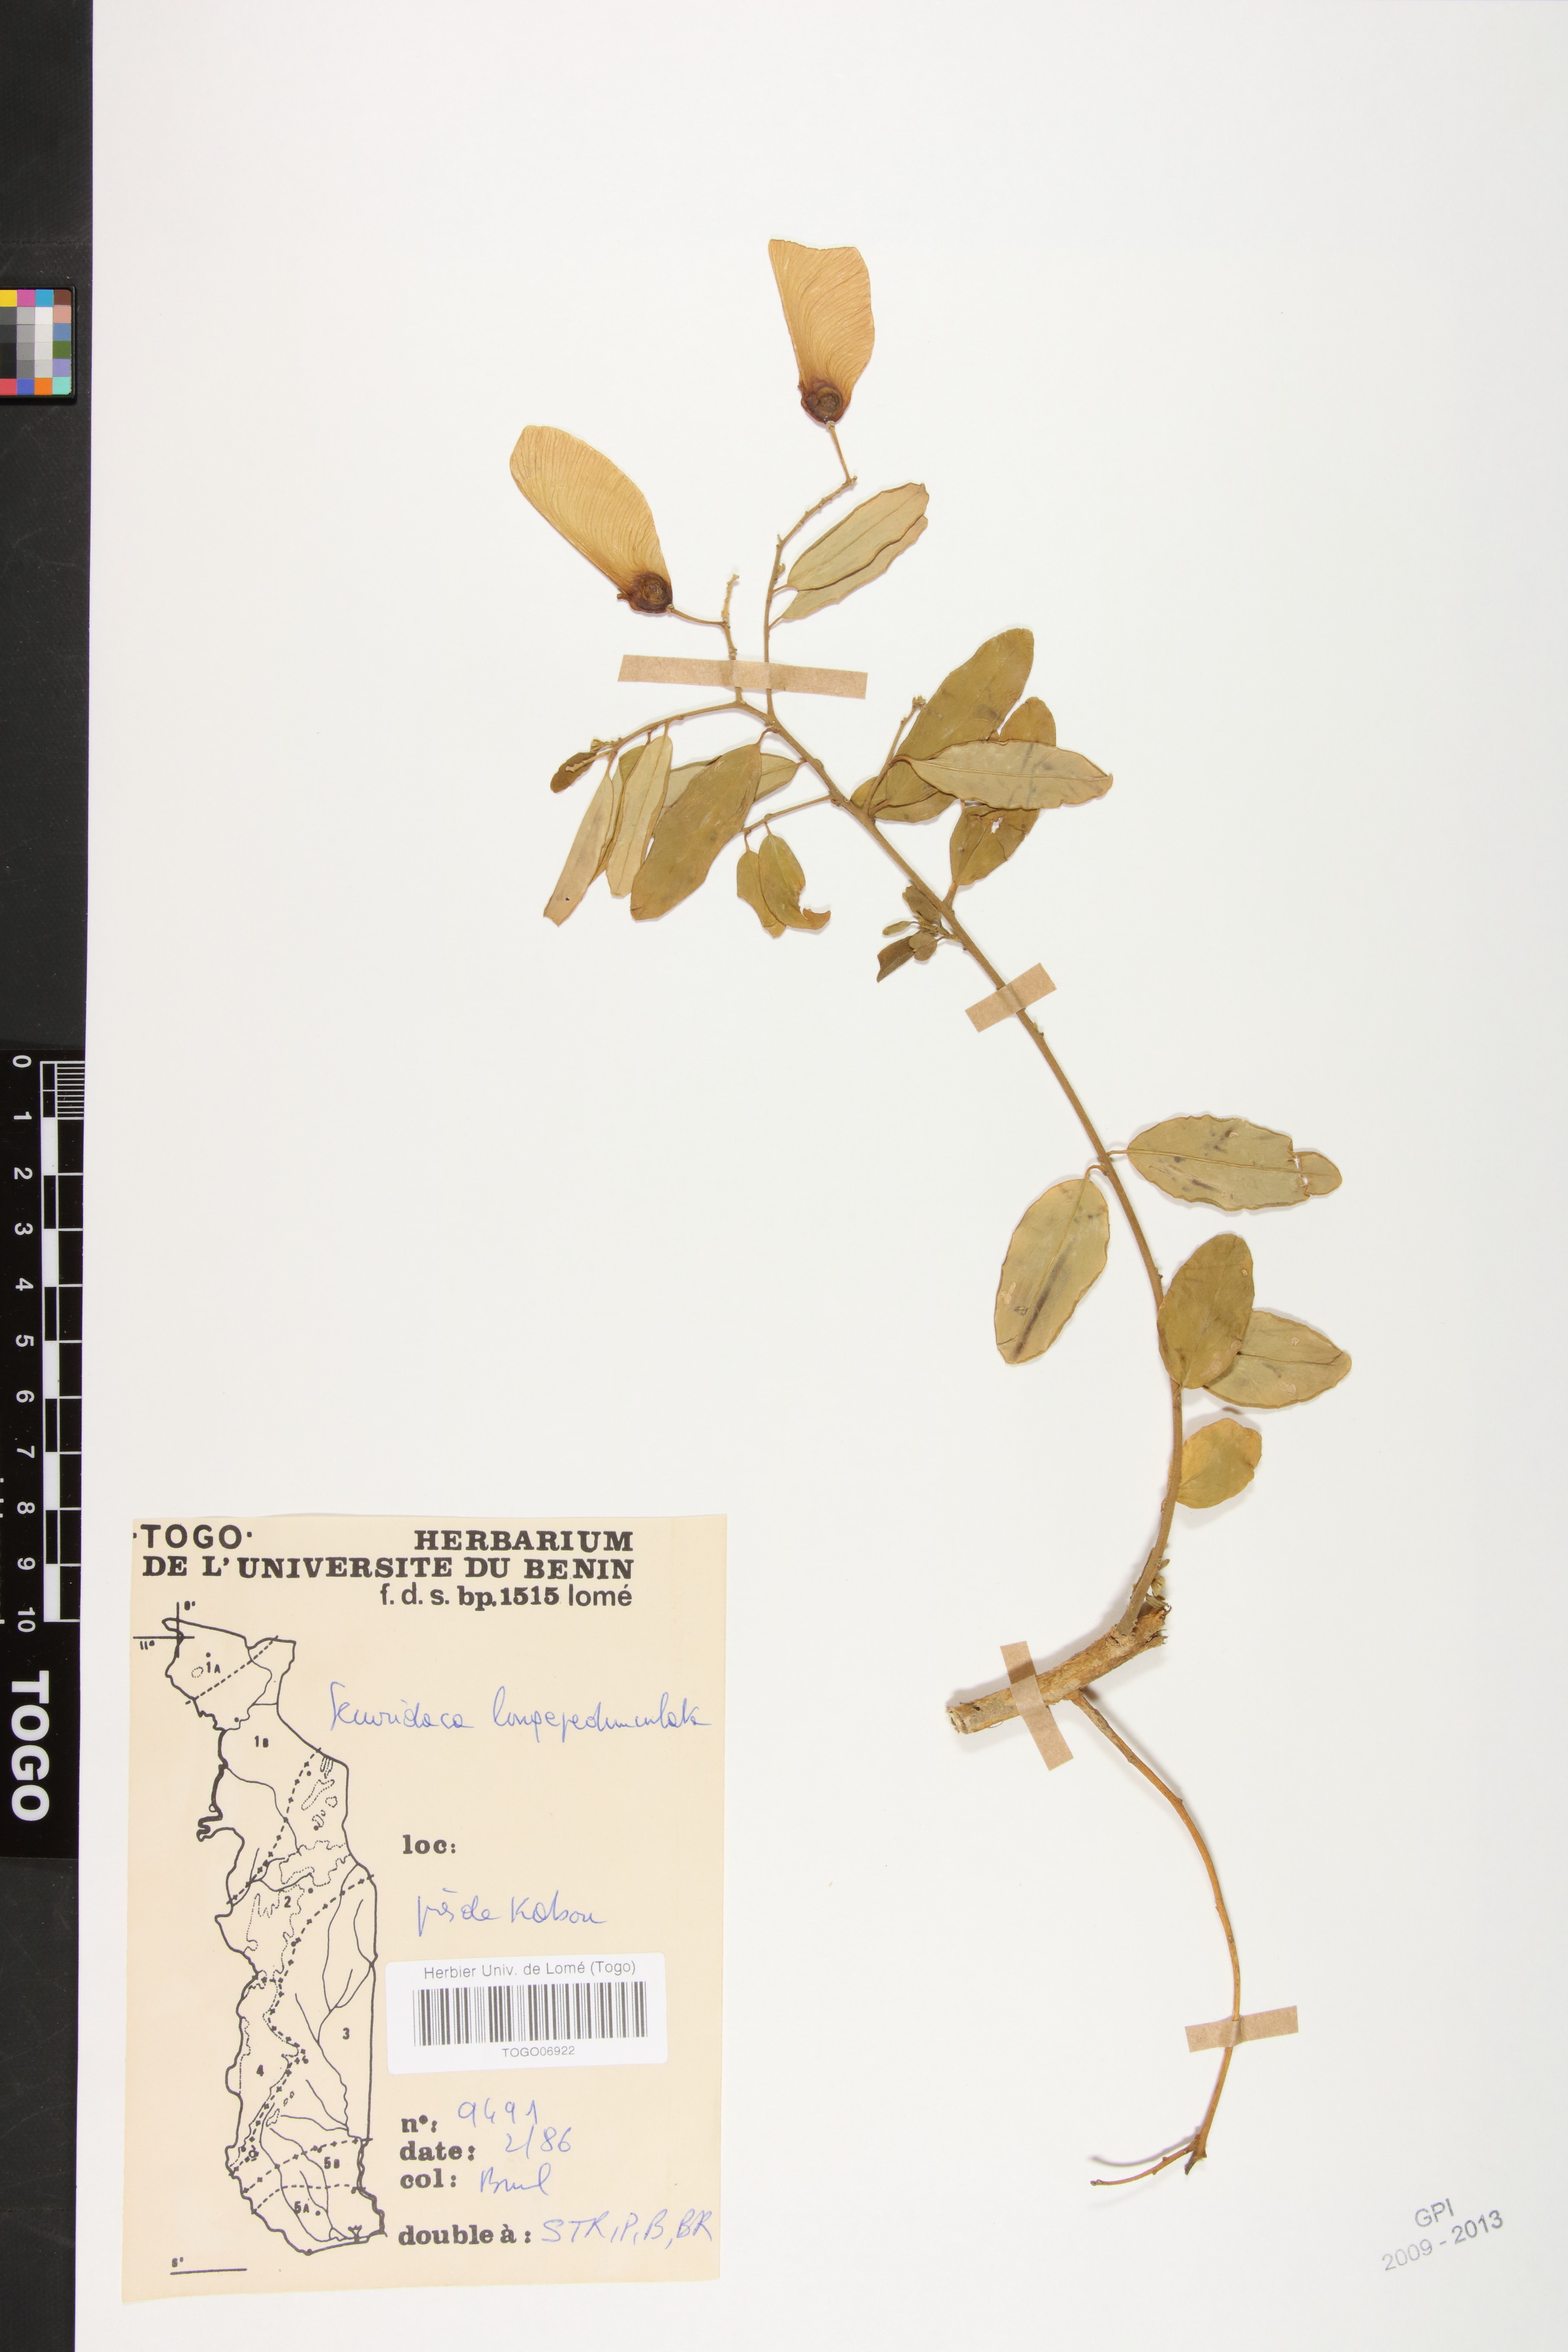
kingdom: Plantae
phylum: Tracheophyta
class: Magnoliopsida
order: Fabales
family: Polygalaceae
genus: Securidaca
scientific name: Securidaca longepedunculata
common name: Violet tree
